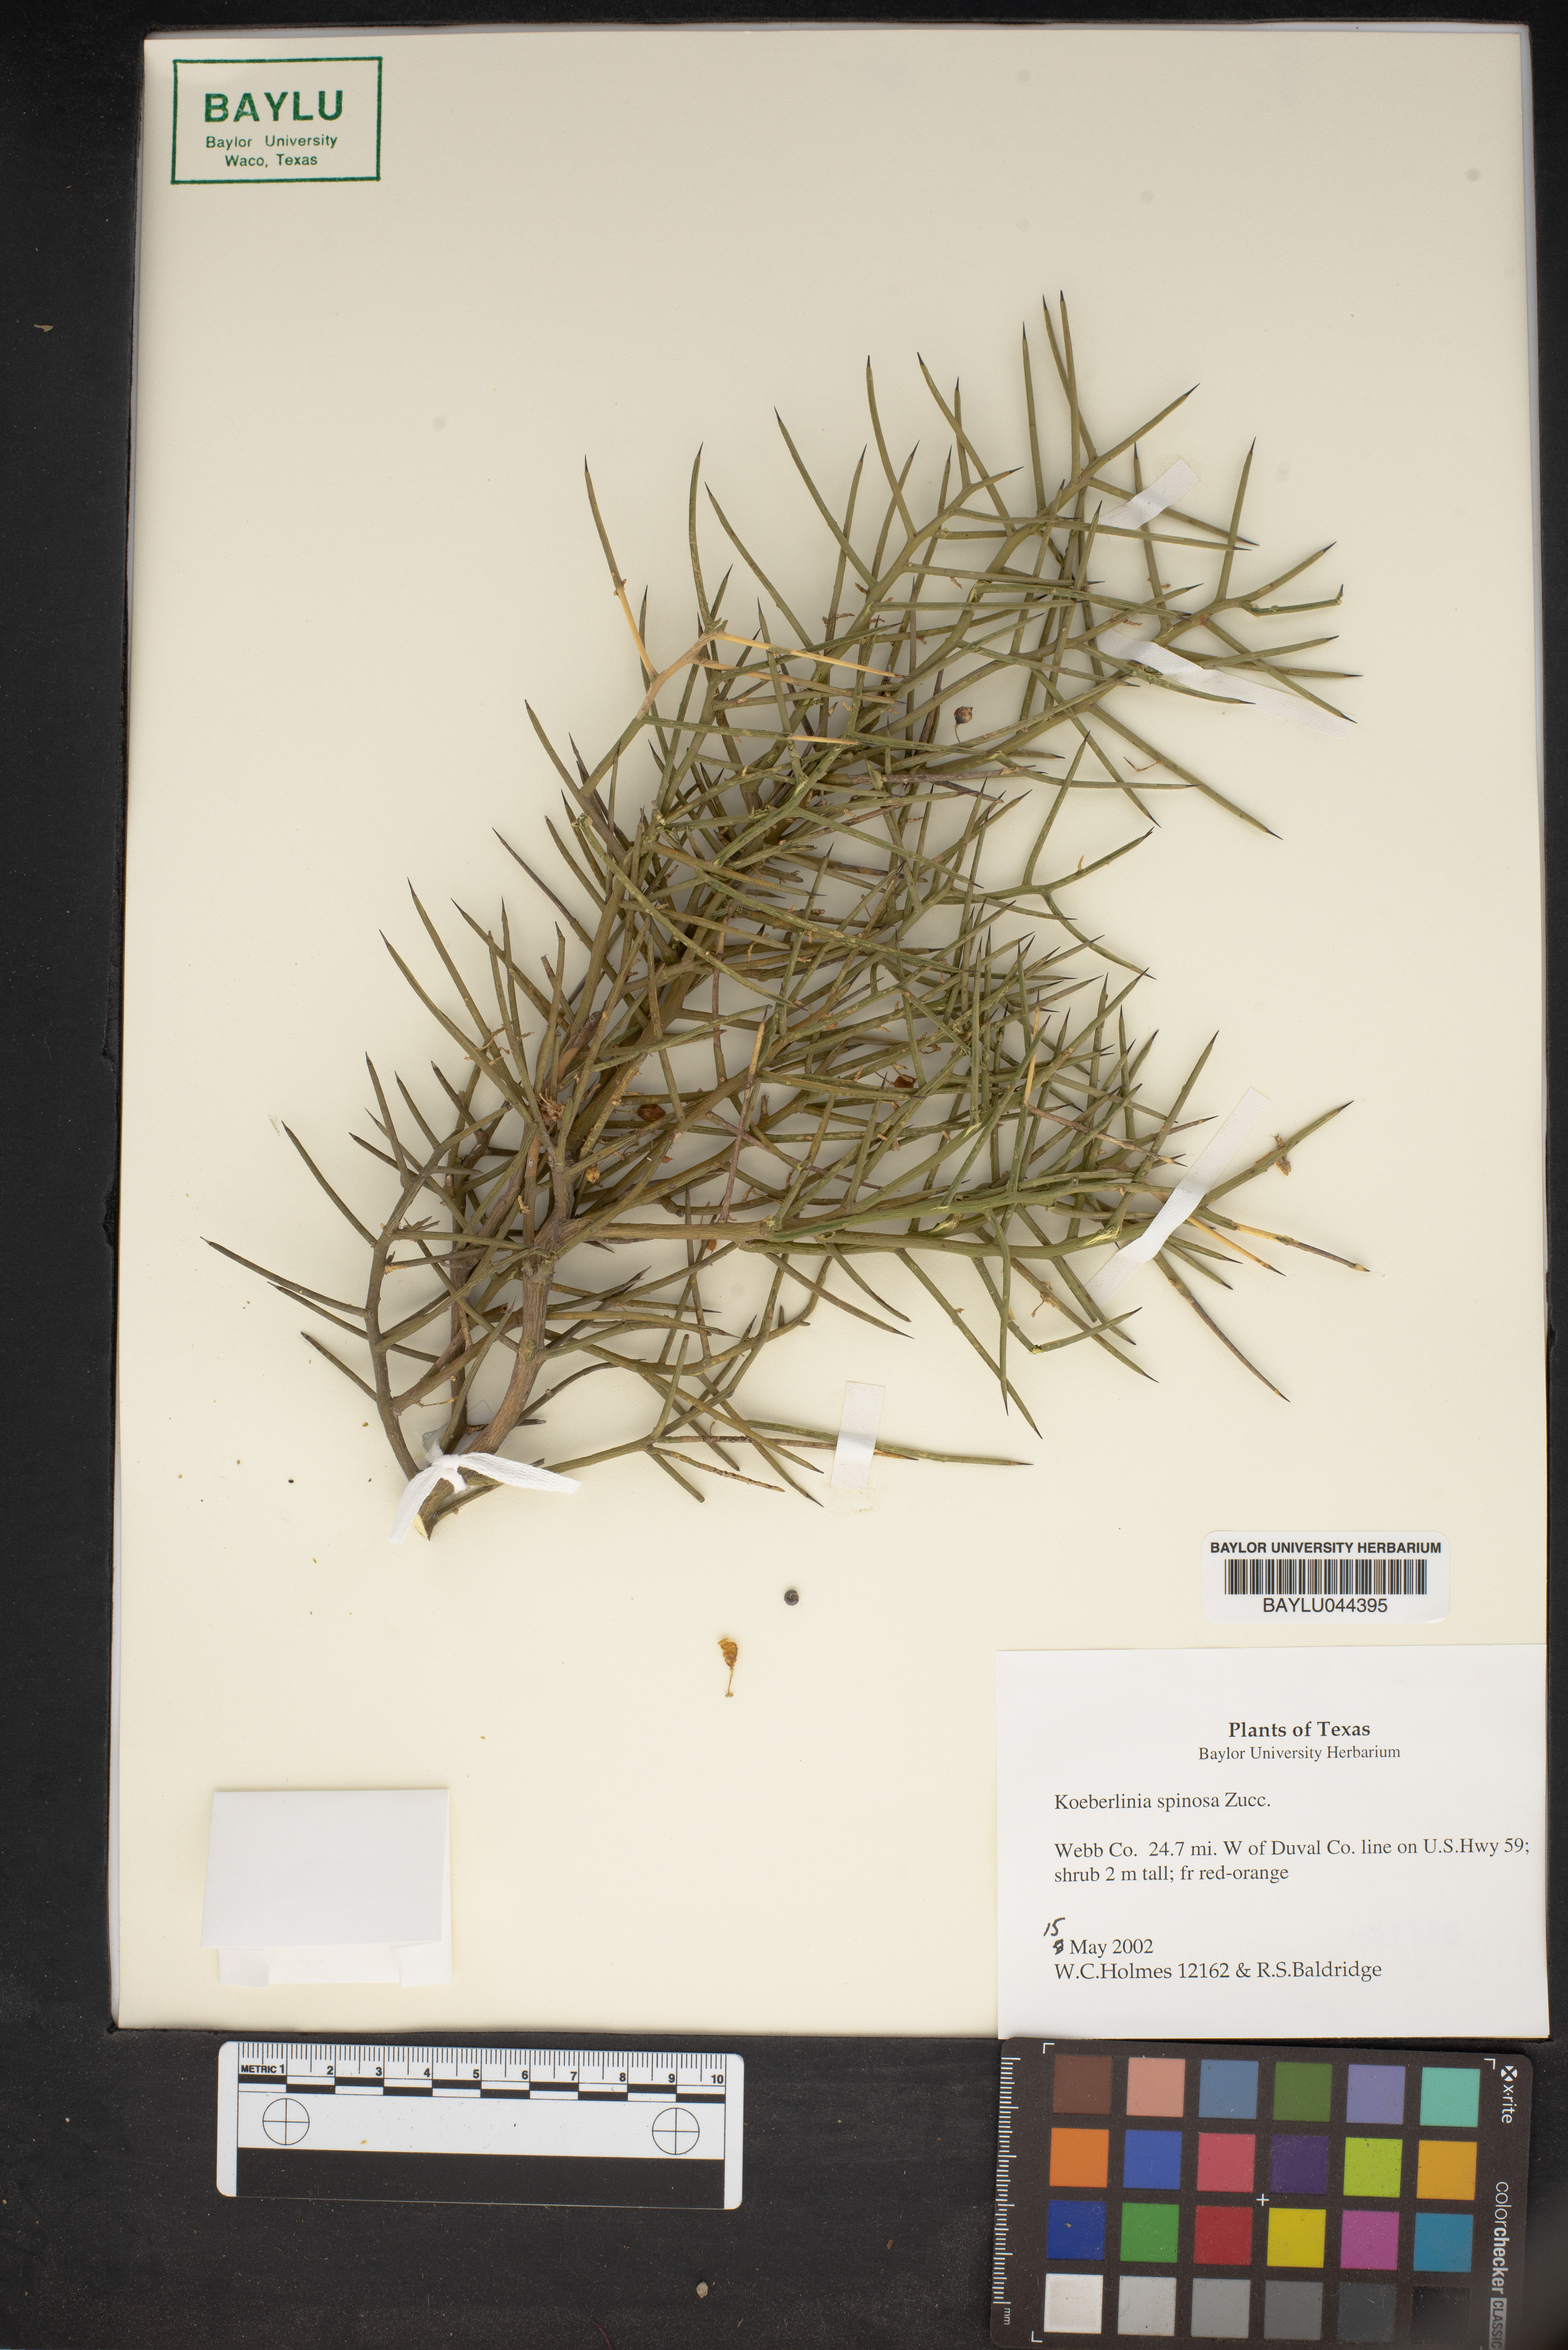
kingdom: Plantae
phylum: Tracheophyta
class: Magnoliopsida
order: Brassicales
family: Koeberliniaceae
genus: Koeberlinia
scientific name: Koeberlinia spinosa
